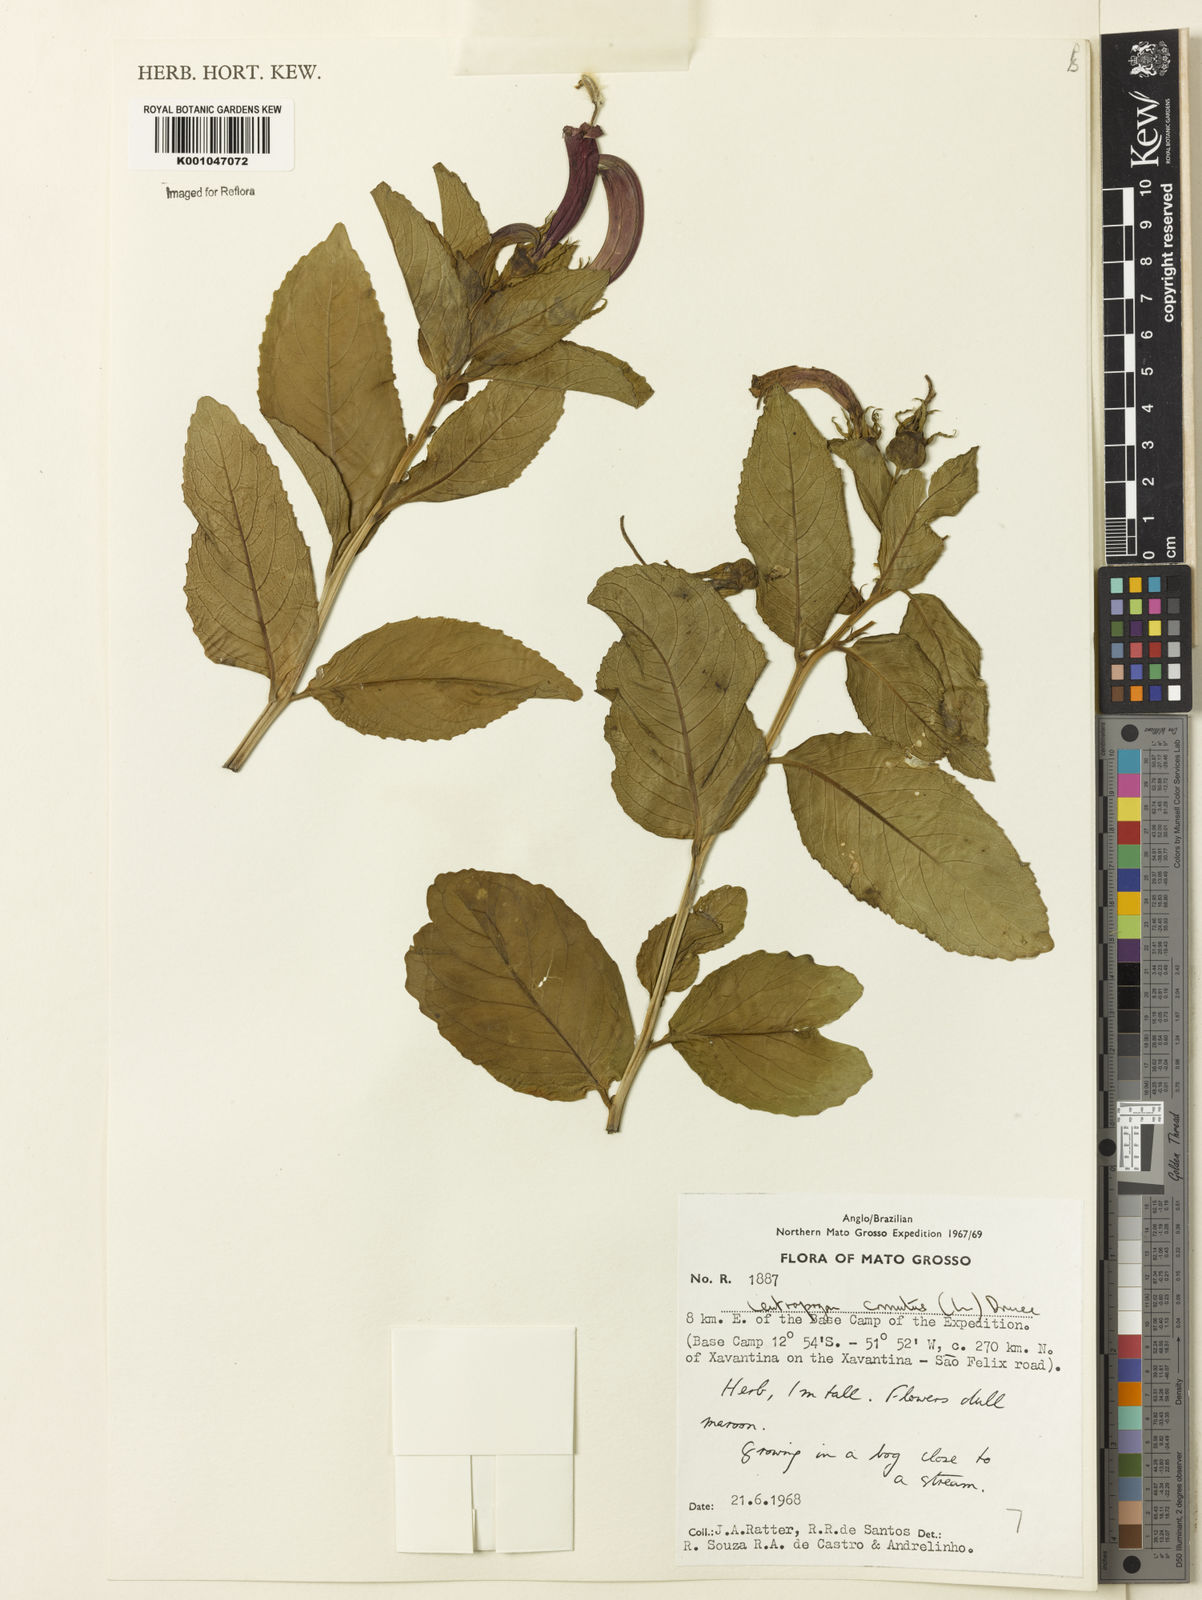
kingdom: Plantae
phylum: Tracheophyta
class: Magnoliopsida
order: Asterales
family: Campanulaceae
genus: Centropogon
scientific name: Centropogon cornutus
